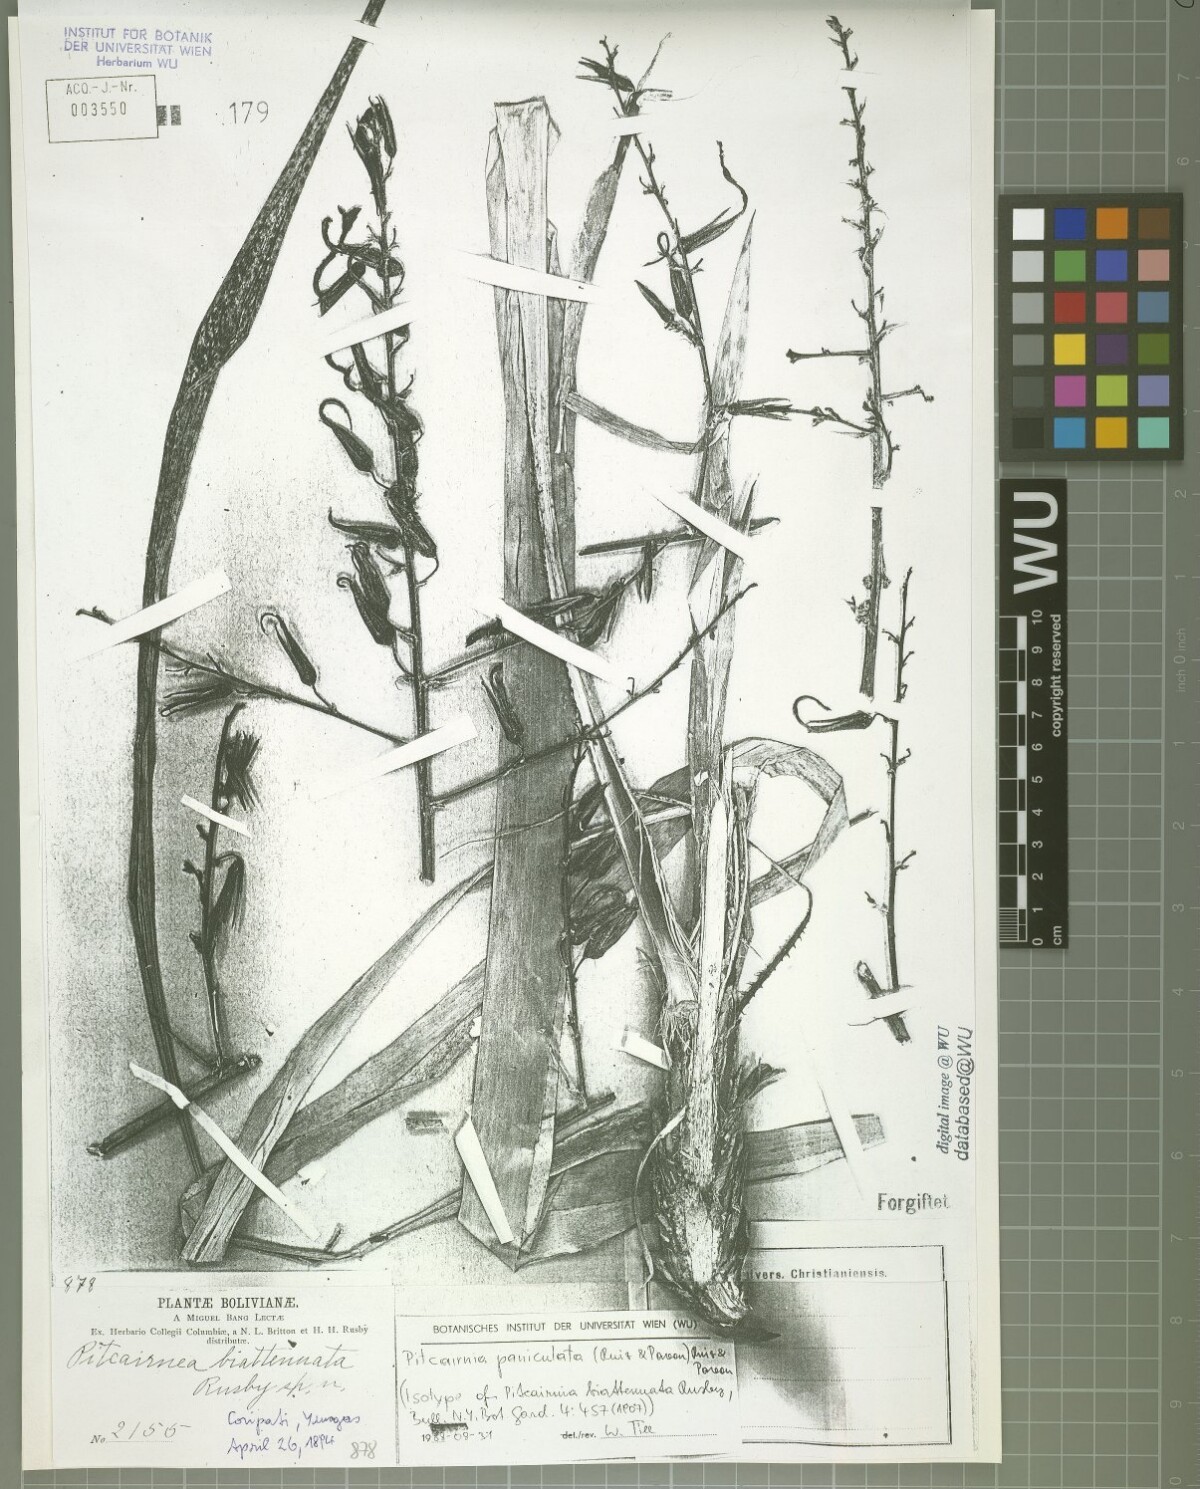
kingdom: Plantae
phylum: Tracheophyta
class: Liliopsida
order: Poales
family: Bromeliaceae
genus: Pitcairnia
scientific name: Pitcairnia paniculata
